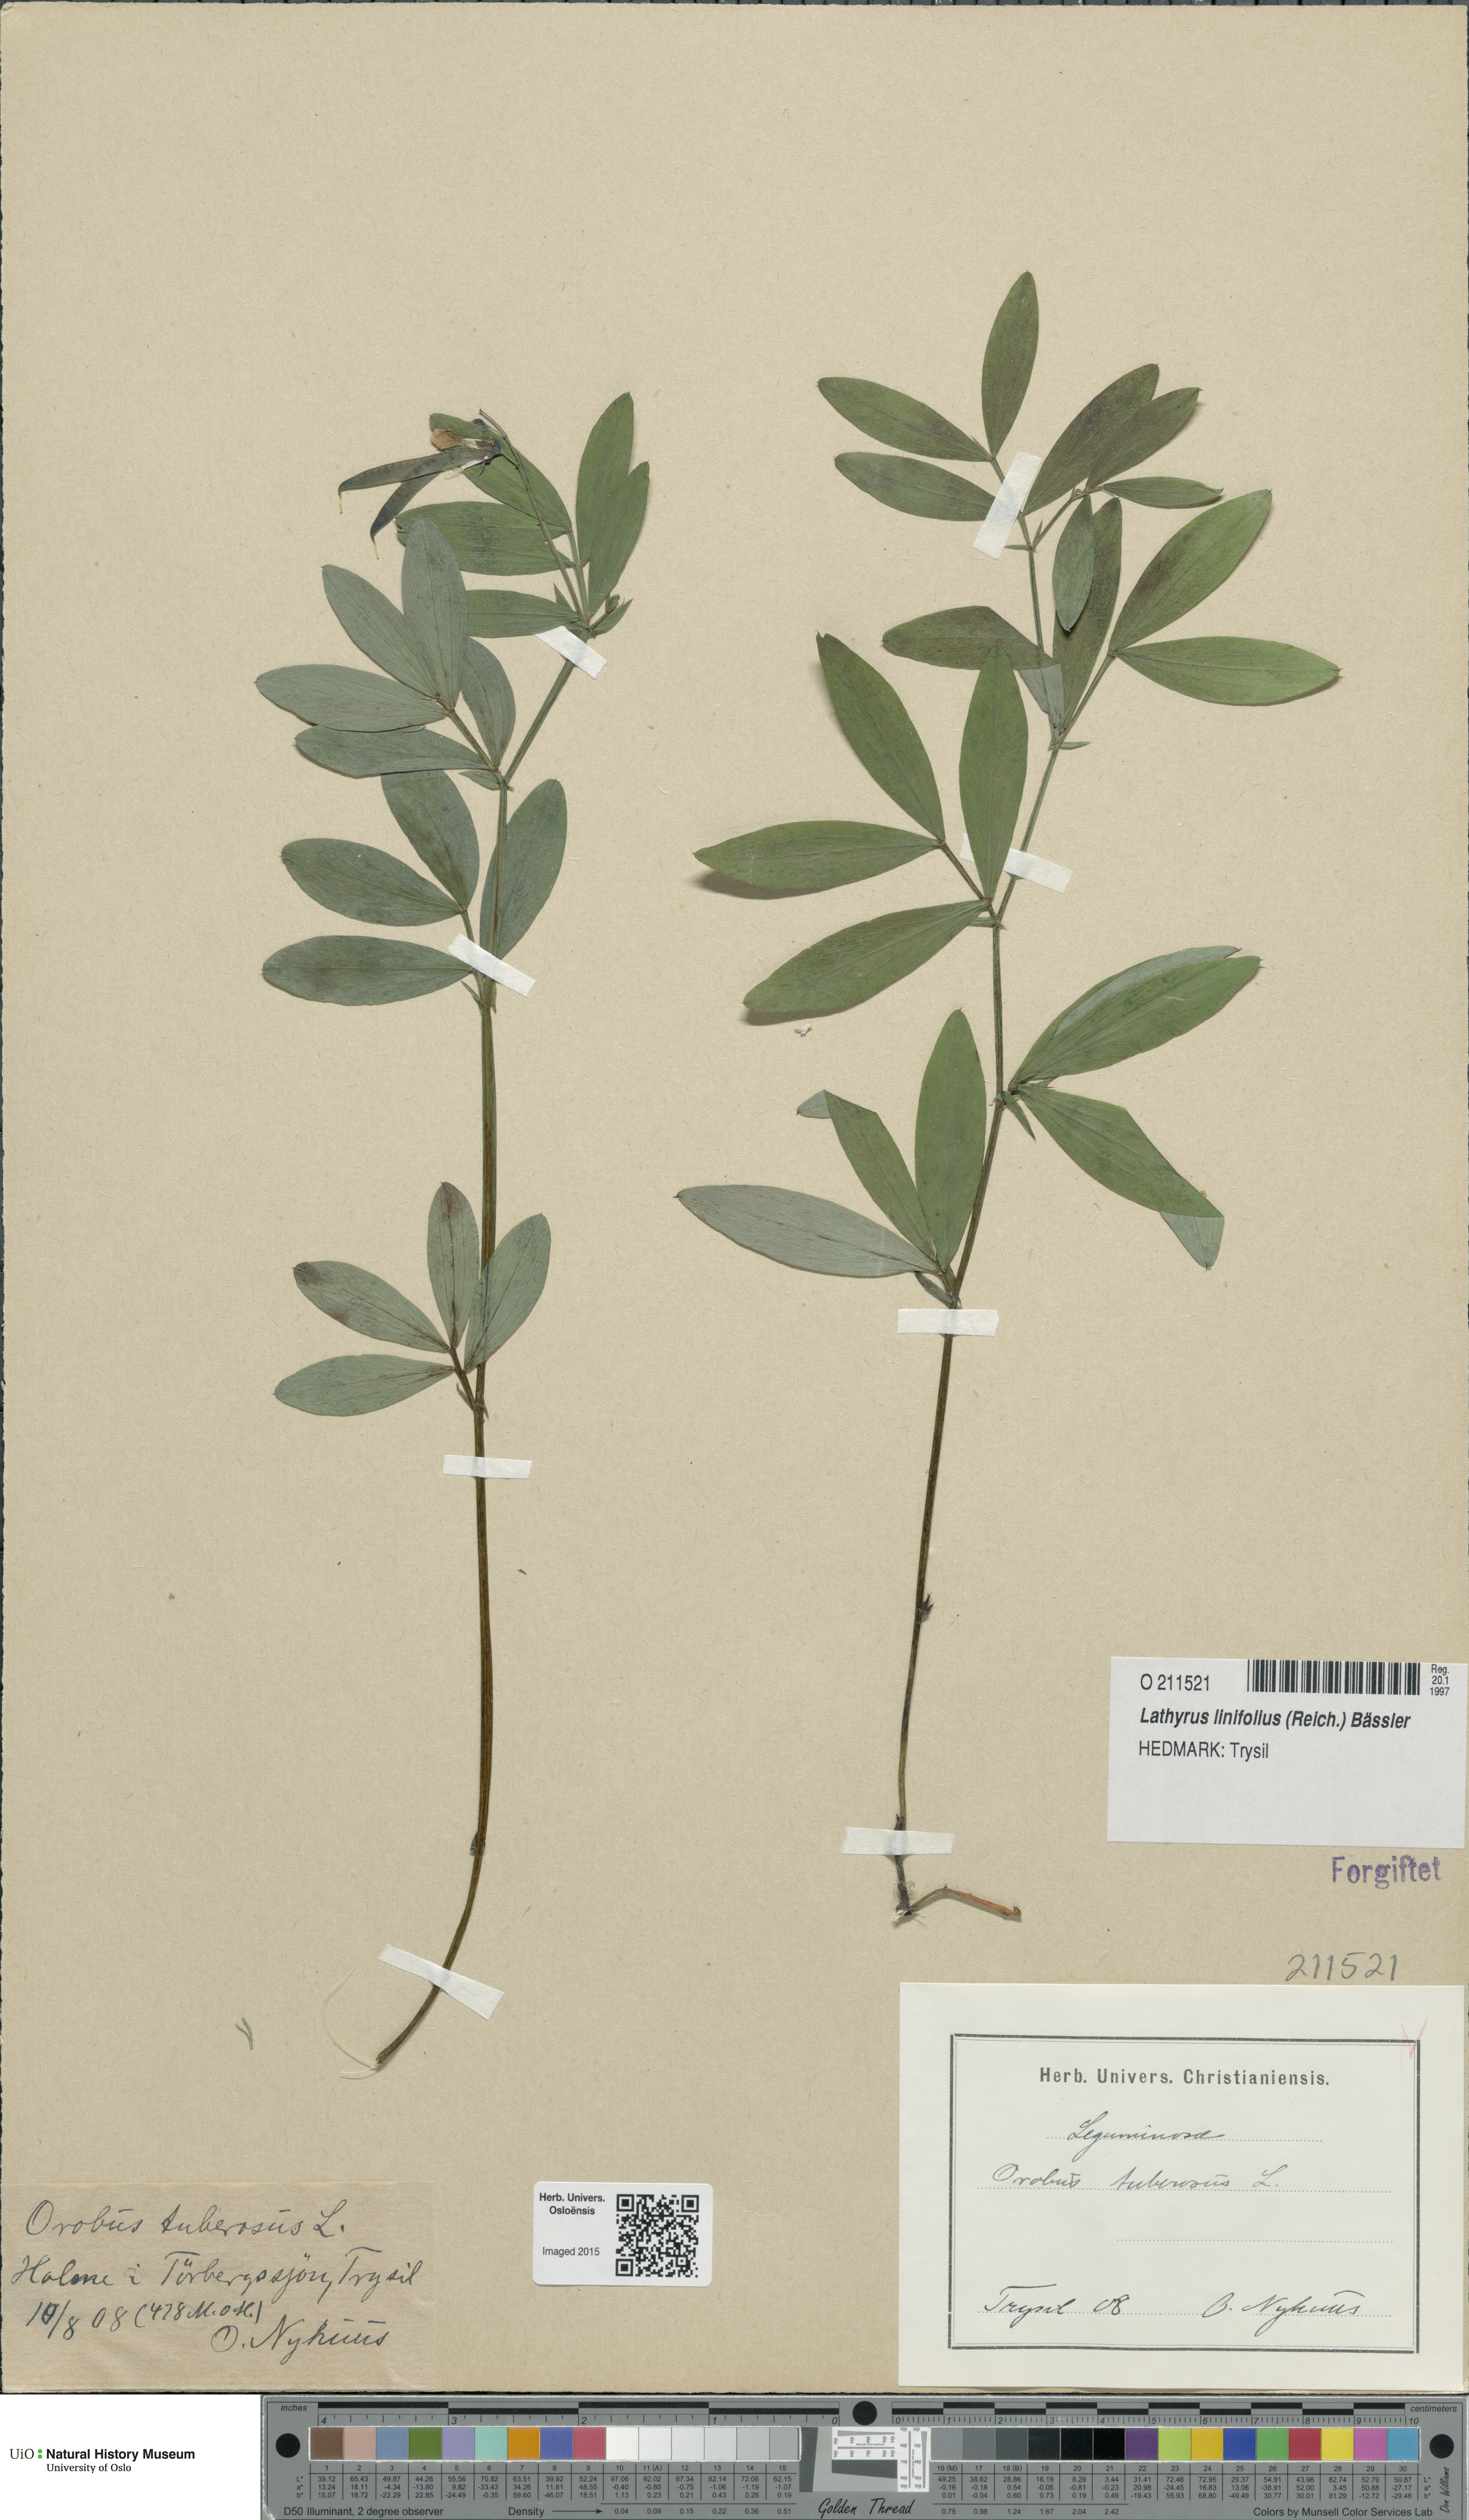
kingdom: Plantae
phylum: Tracheophyta
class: Magnoliopsida
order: Fabales
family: Fabaceae
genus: Lathyrus
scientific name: Lathyrus linifolius
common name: Bitter-vetch
